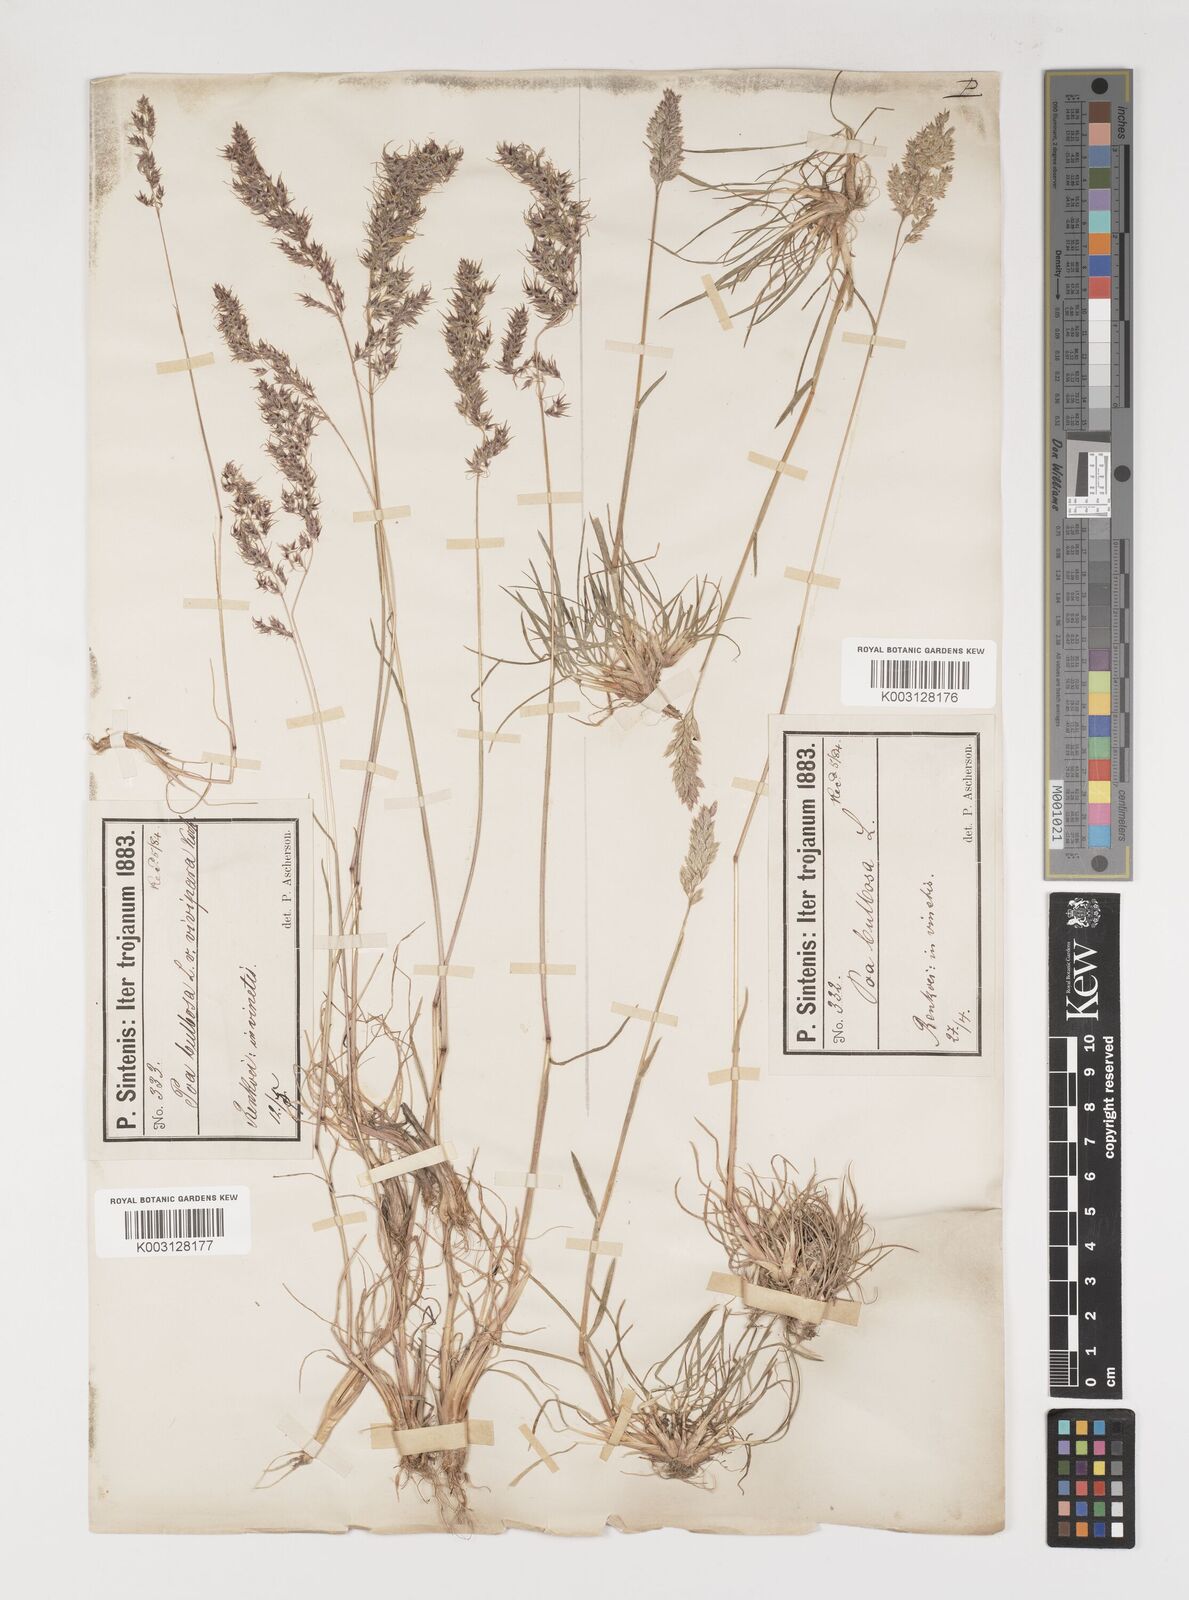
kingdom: Plantae
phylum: Tracheophyta
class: Liliopsida
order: Poales
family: Poaceae
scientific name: Poaceae
